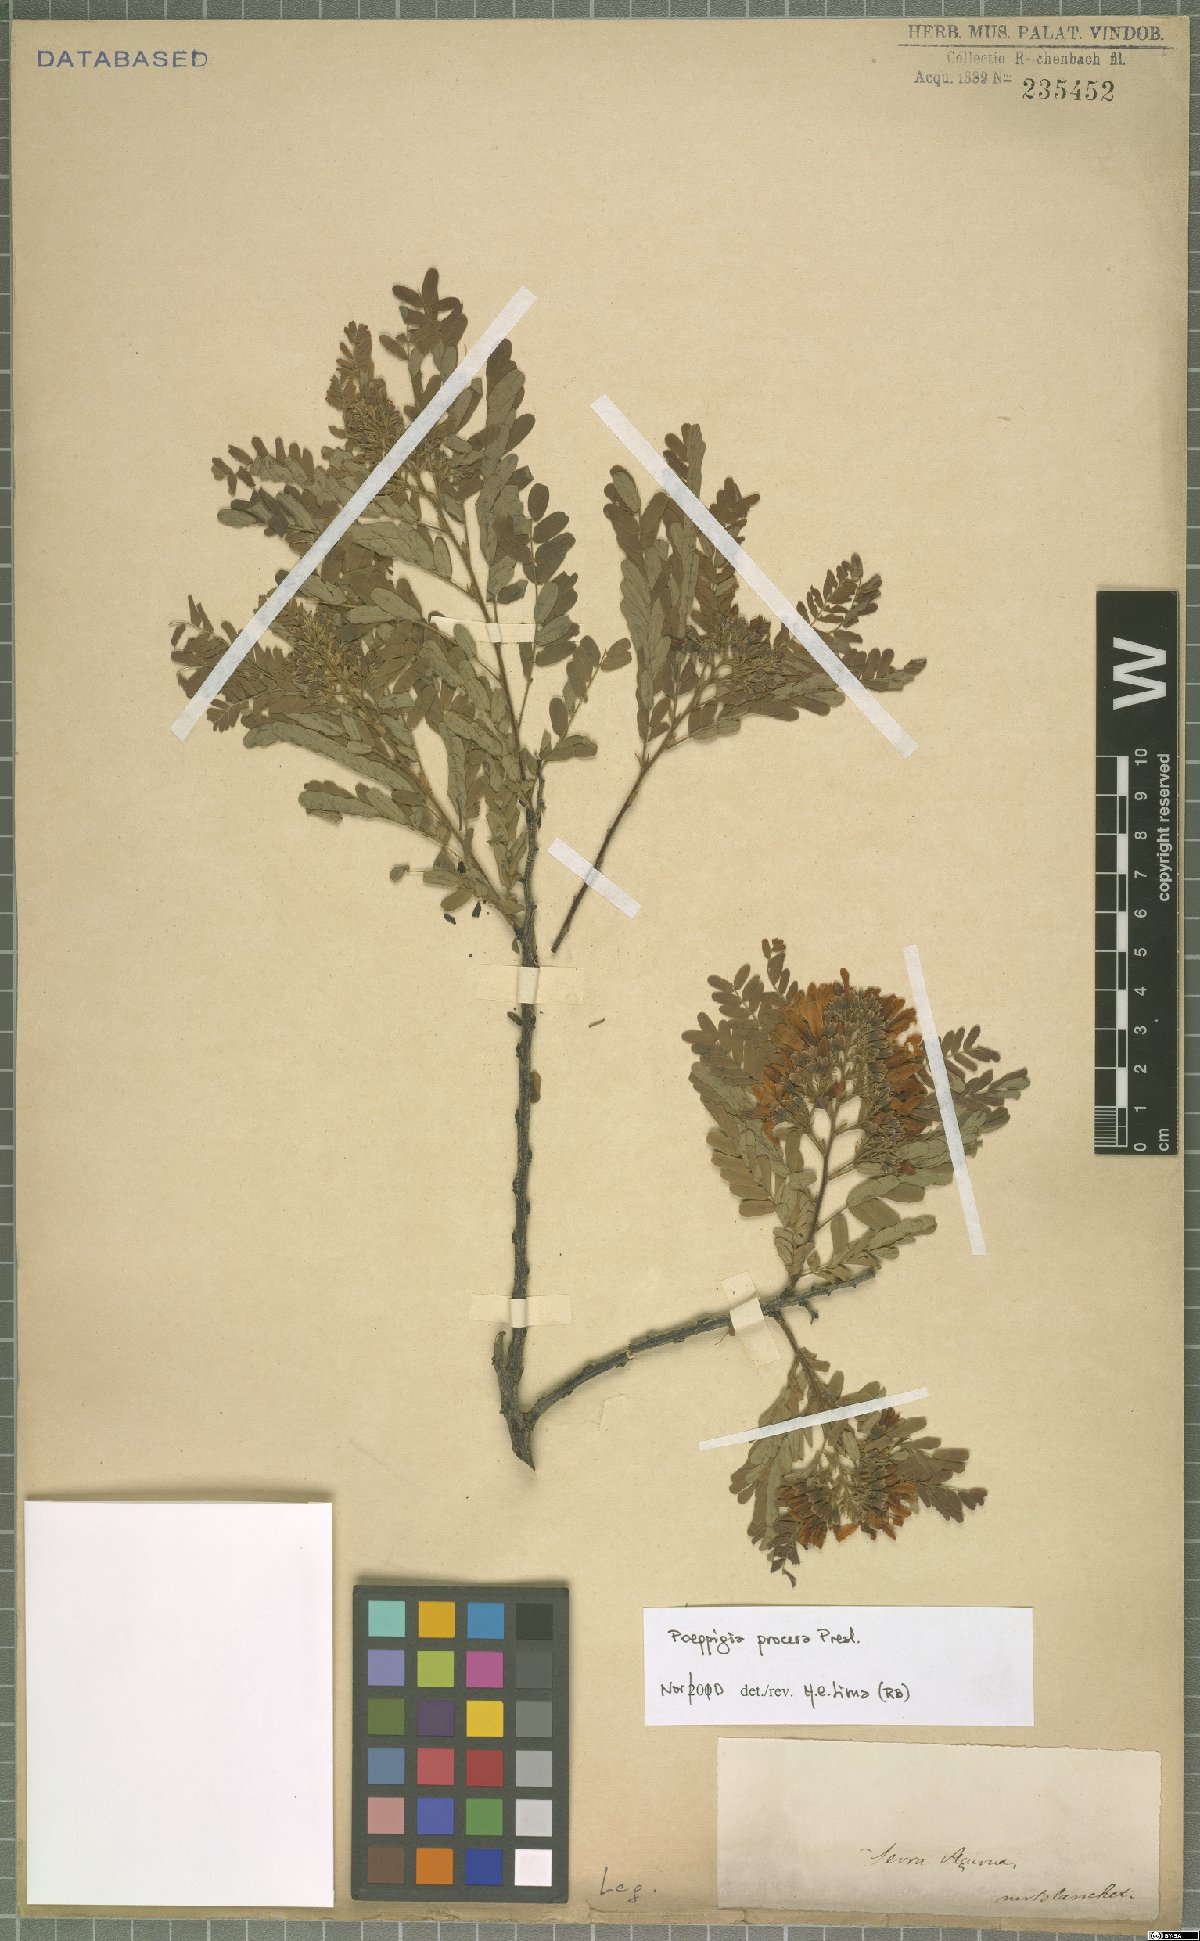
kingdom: Plantae
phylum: Tracheophyta
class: Magnoliopsida
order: Fabales
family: Fabaceae
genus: Poeppigia
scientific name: Poeppigia procera
